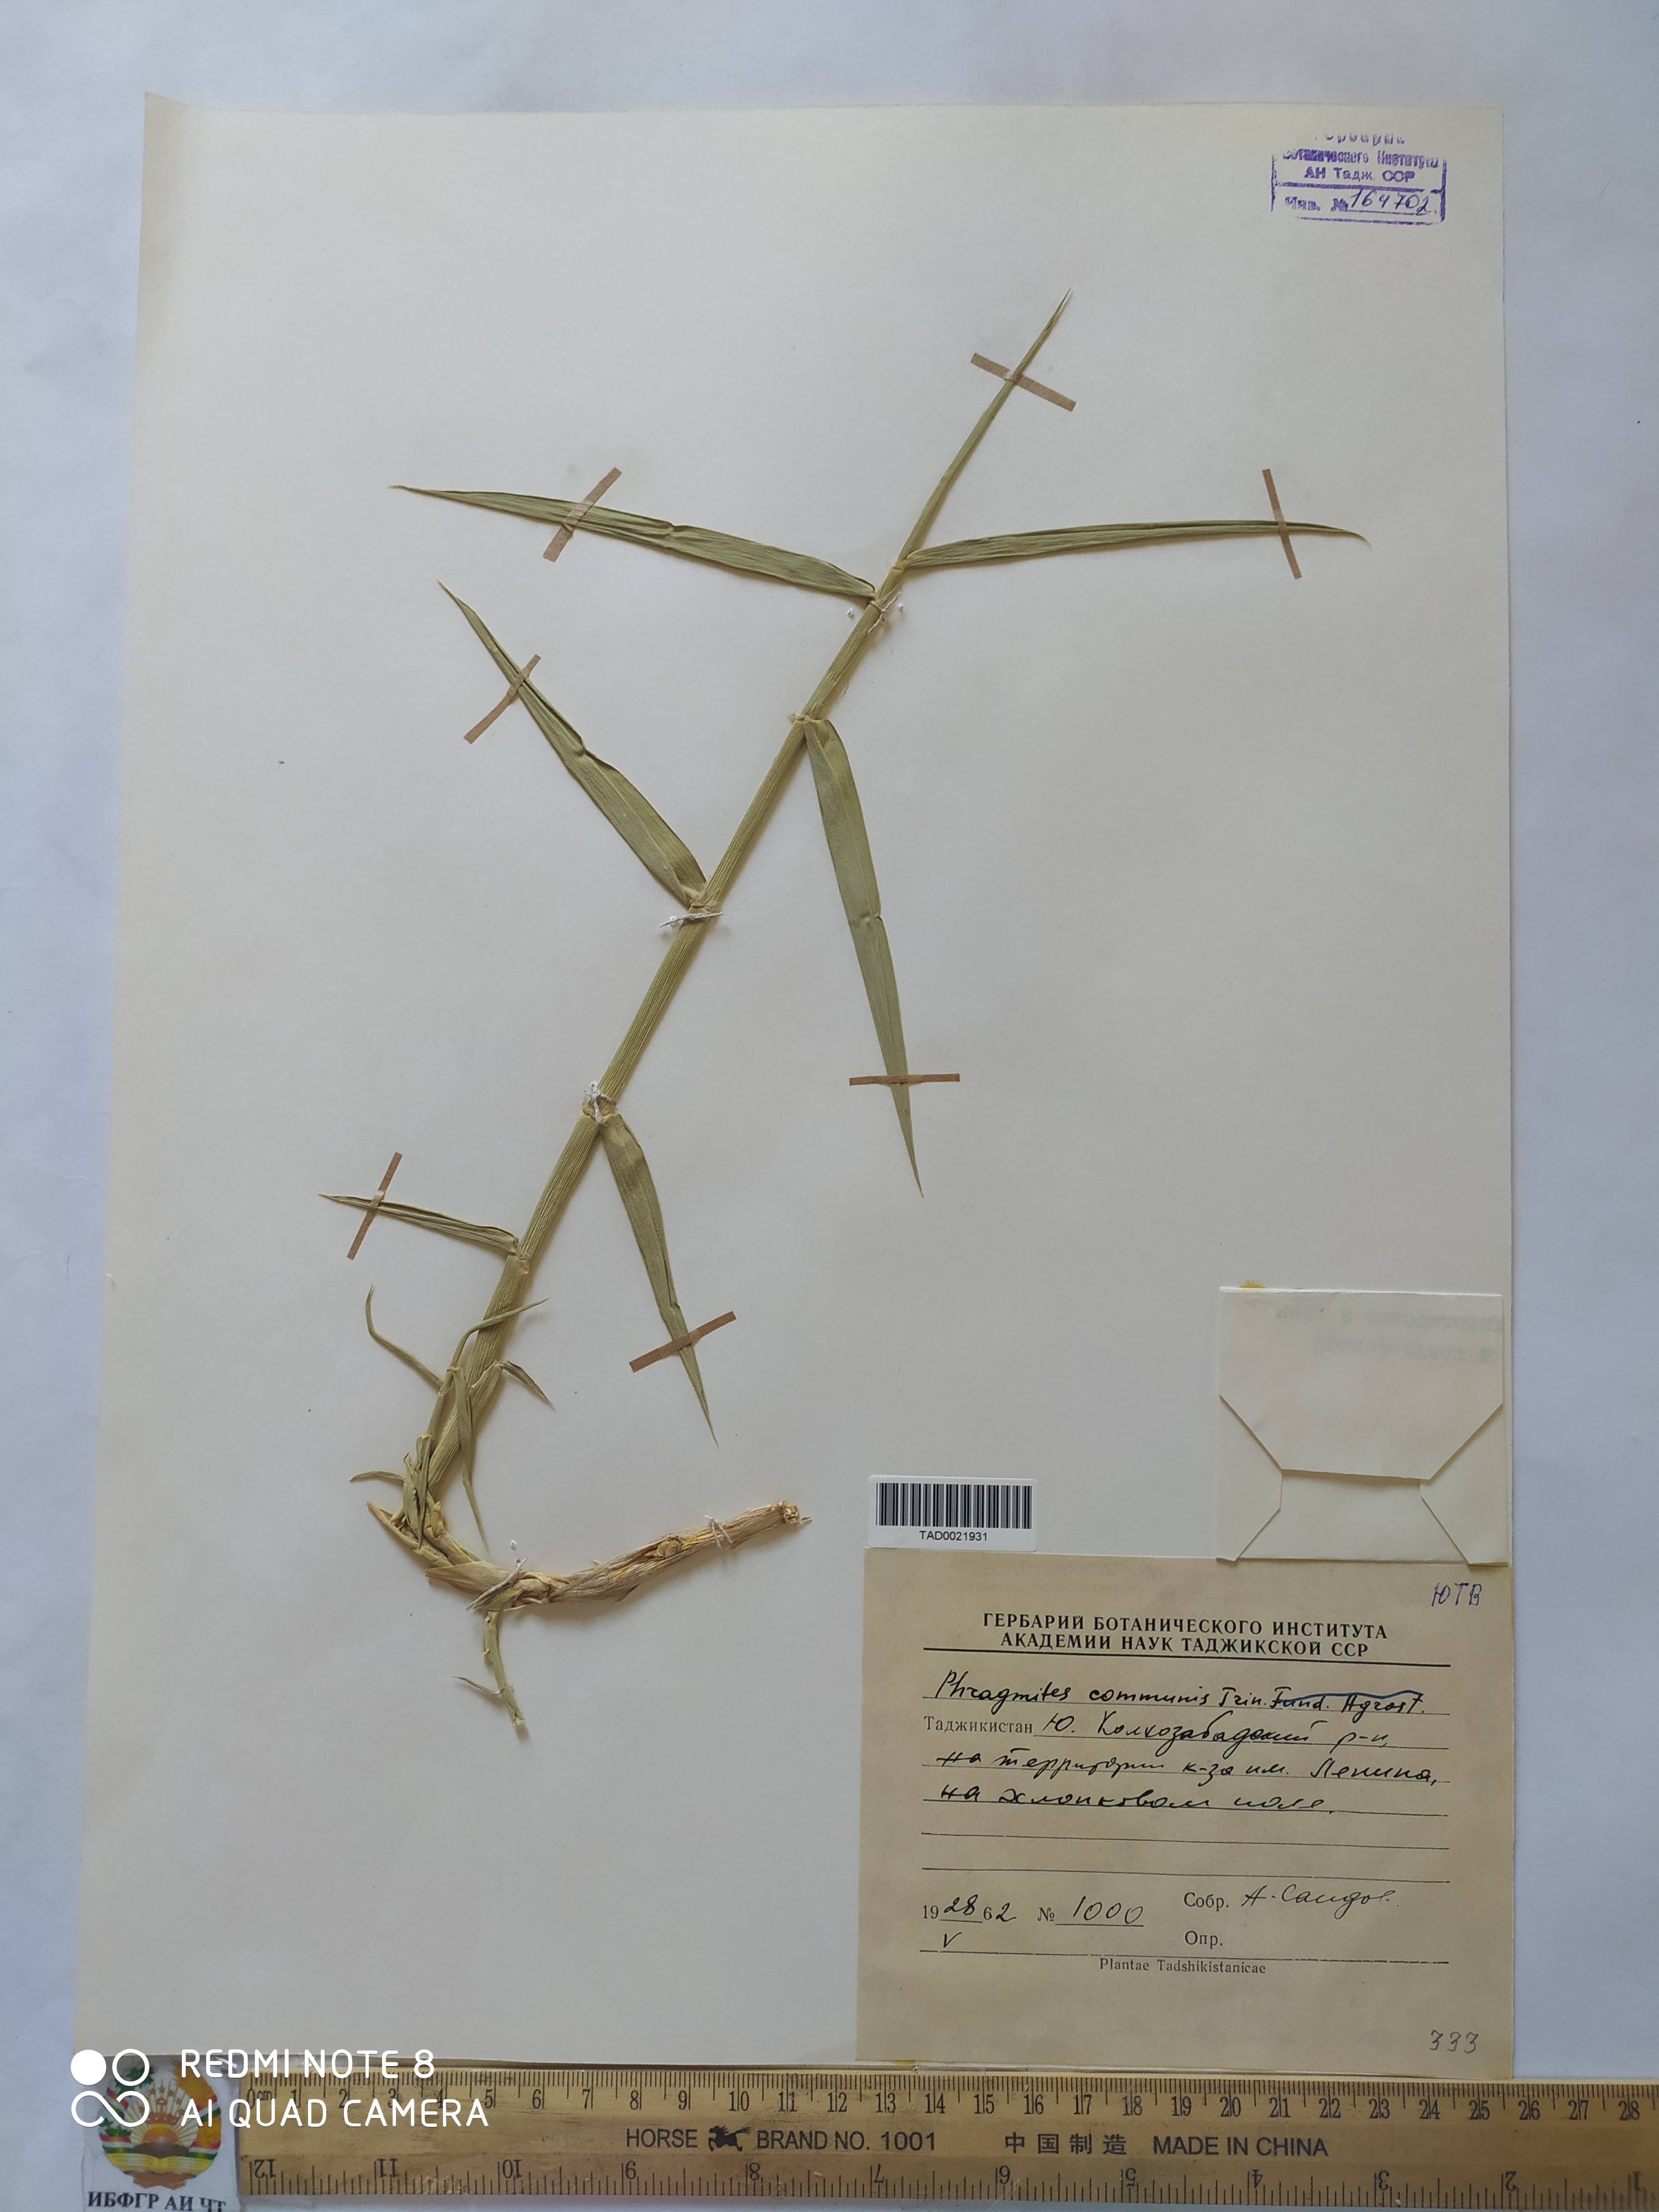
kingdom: Plantae
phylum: Tracheophyta
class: Liliopsida
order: Poales
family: Poaceae
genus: Phragmites
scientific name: Phragmites australis
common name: Common reed
